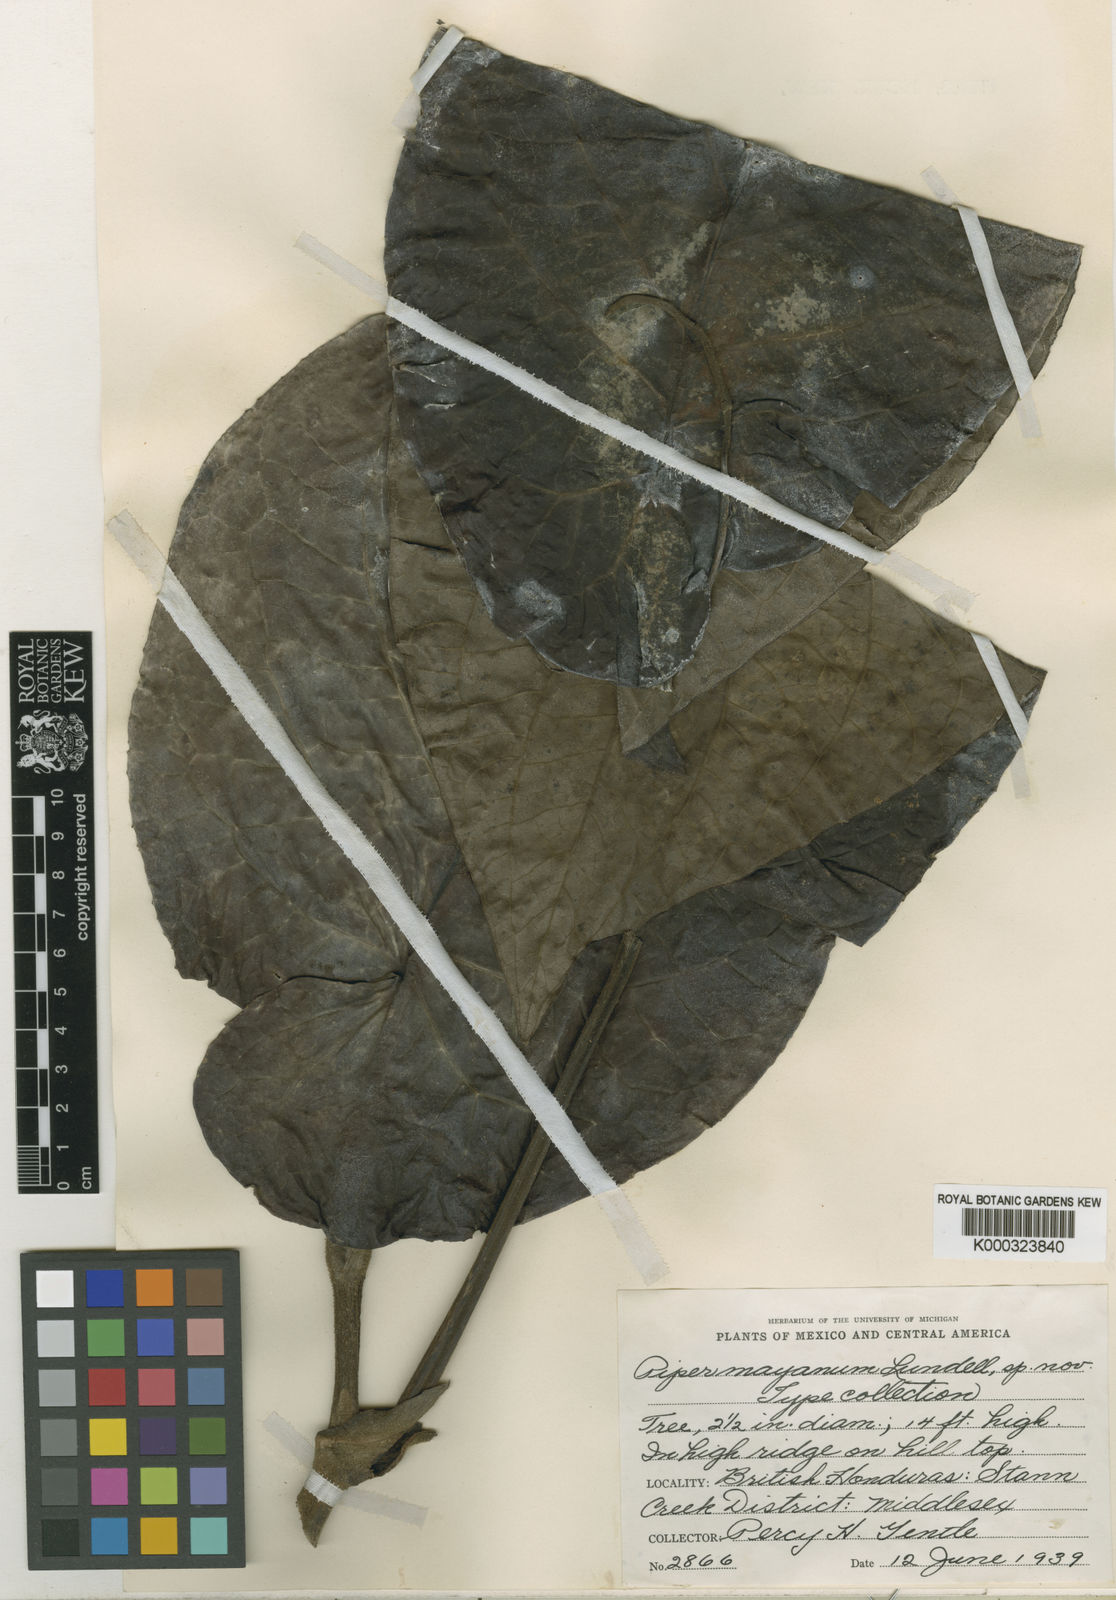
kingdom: Plantae
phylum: Tracheophyta
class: Magnoliopsida
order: Piperales
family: Piperaceae
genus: Piper
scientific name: Piper
